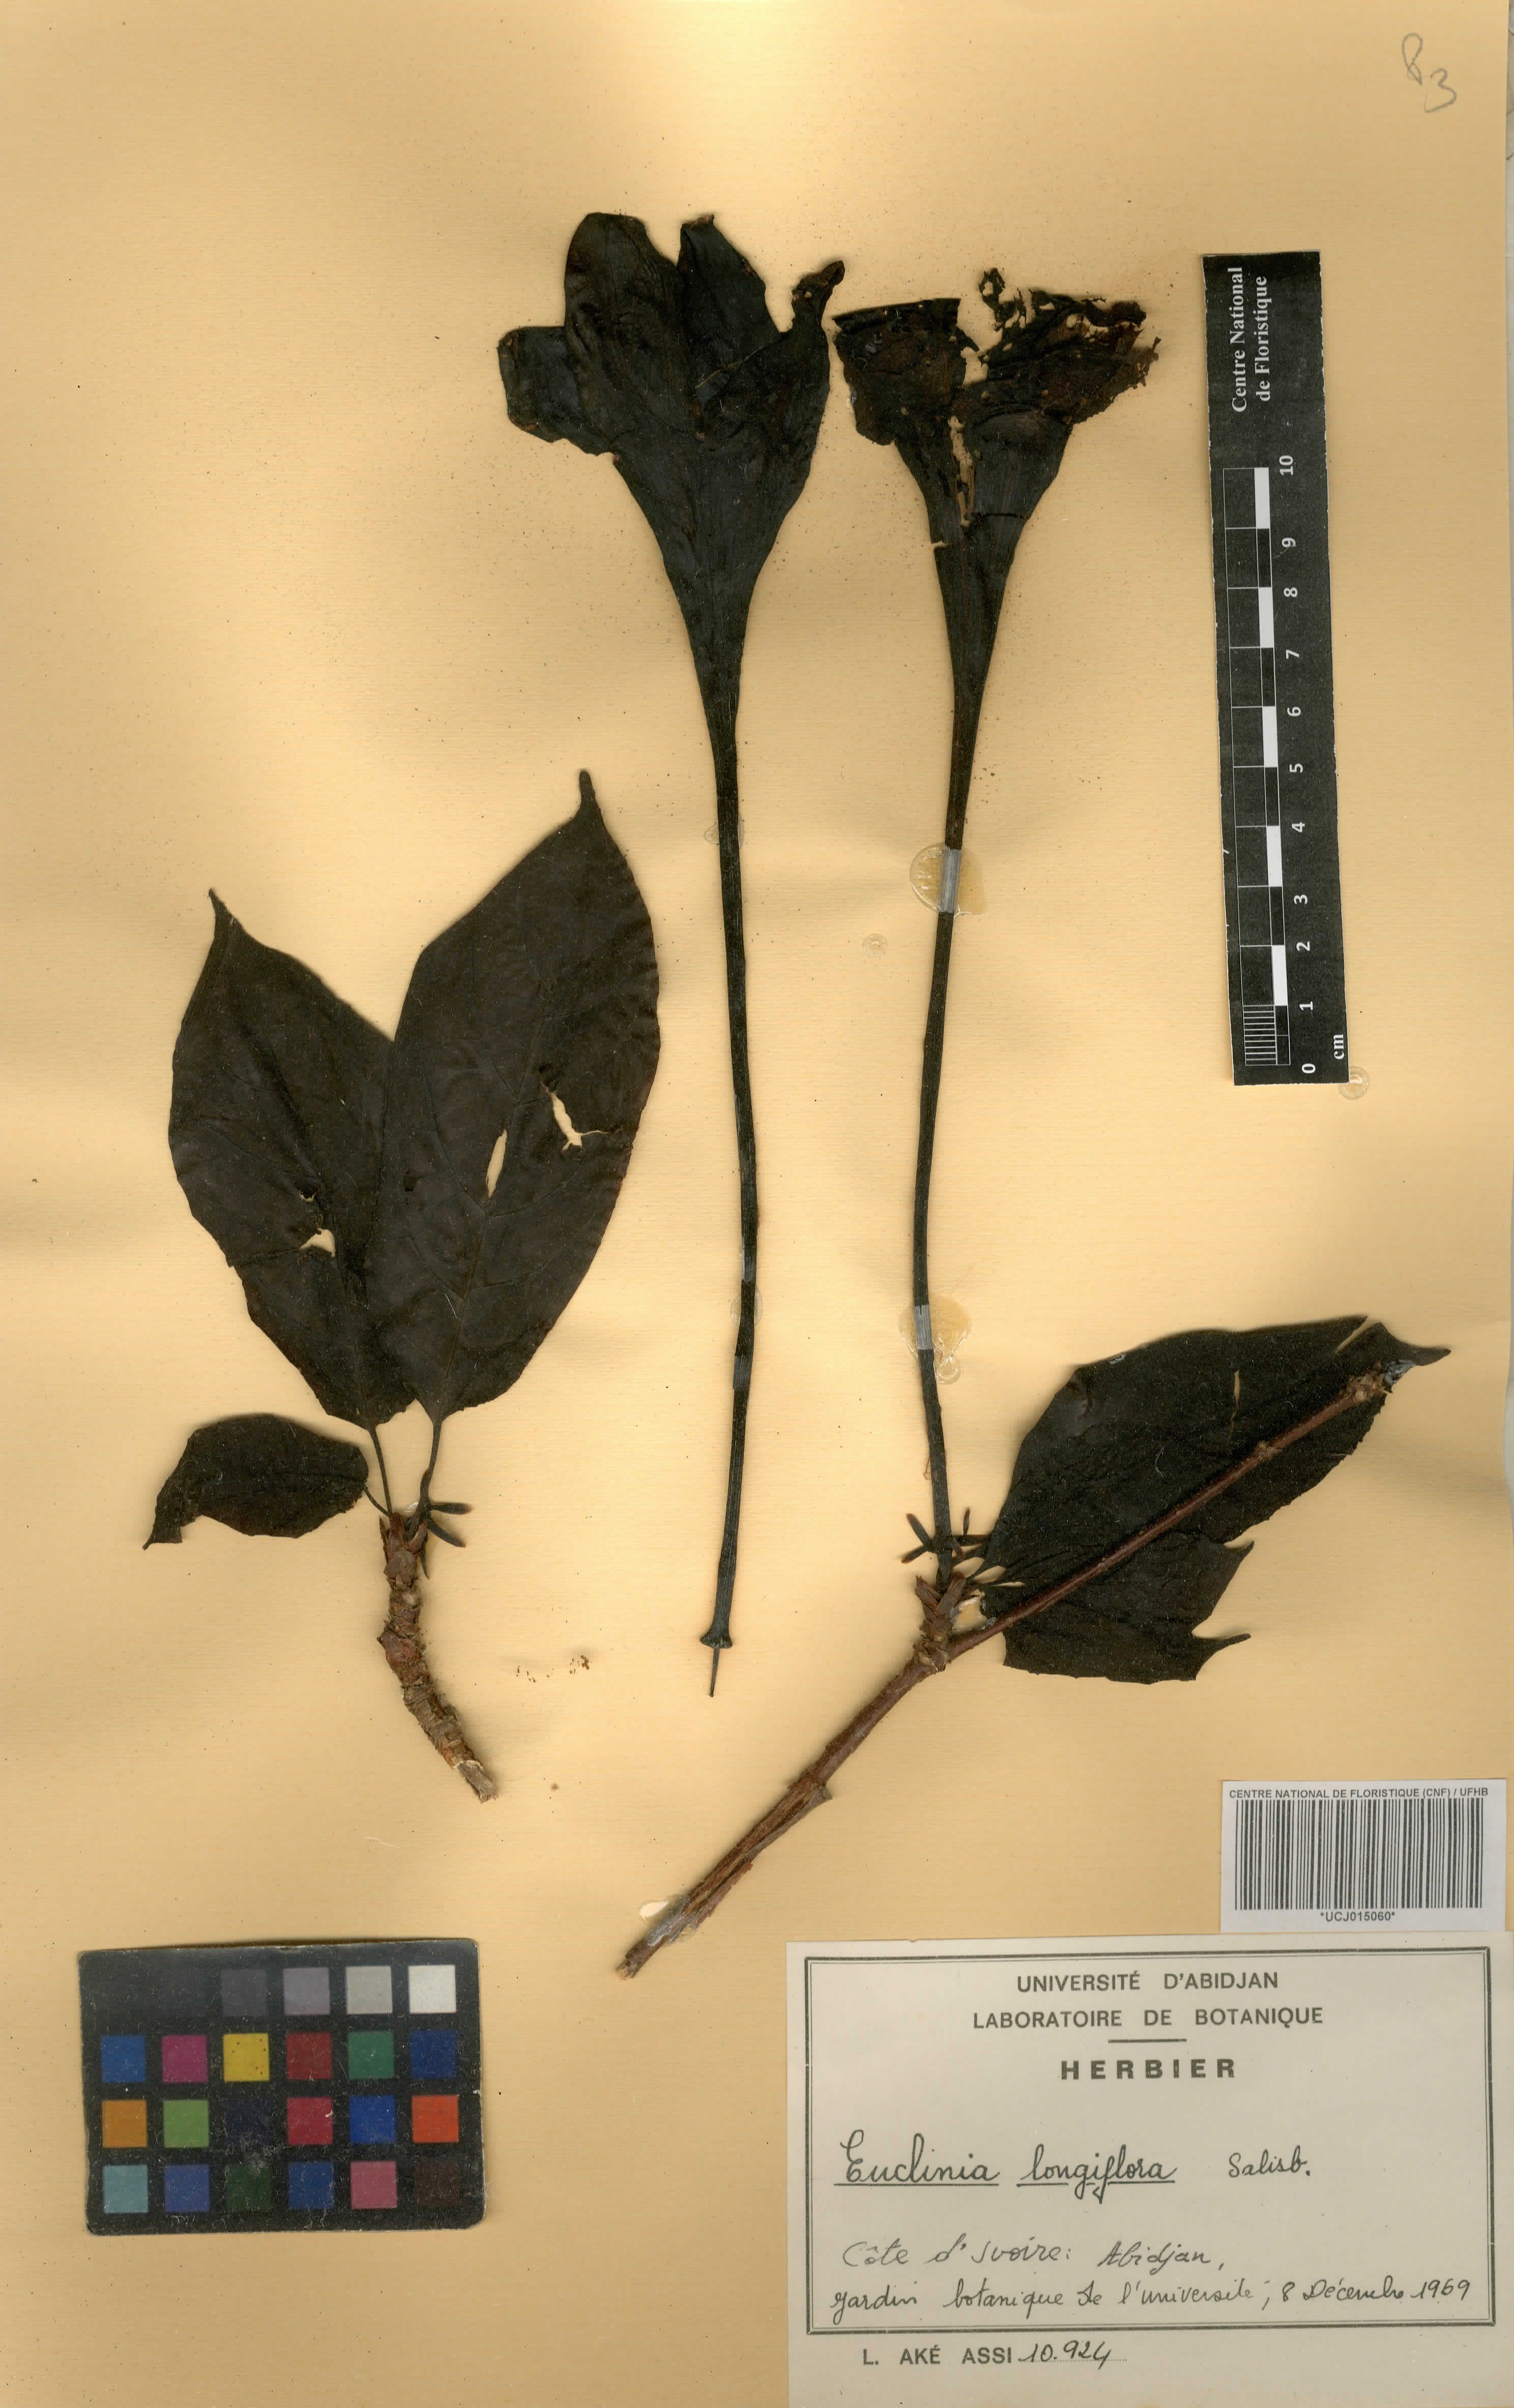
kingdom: Plantae
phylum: Tracheophyta
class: Magnoliopsida
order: Gentianales
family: Rubiaceae
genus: Euclinia
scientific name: Euclinia longiflora
